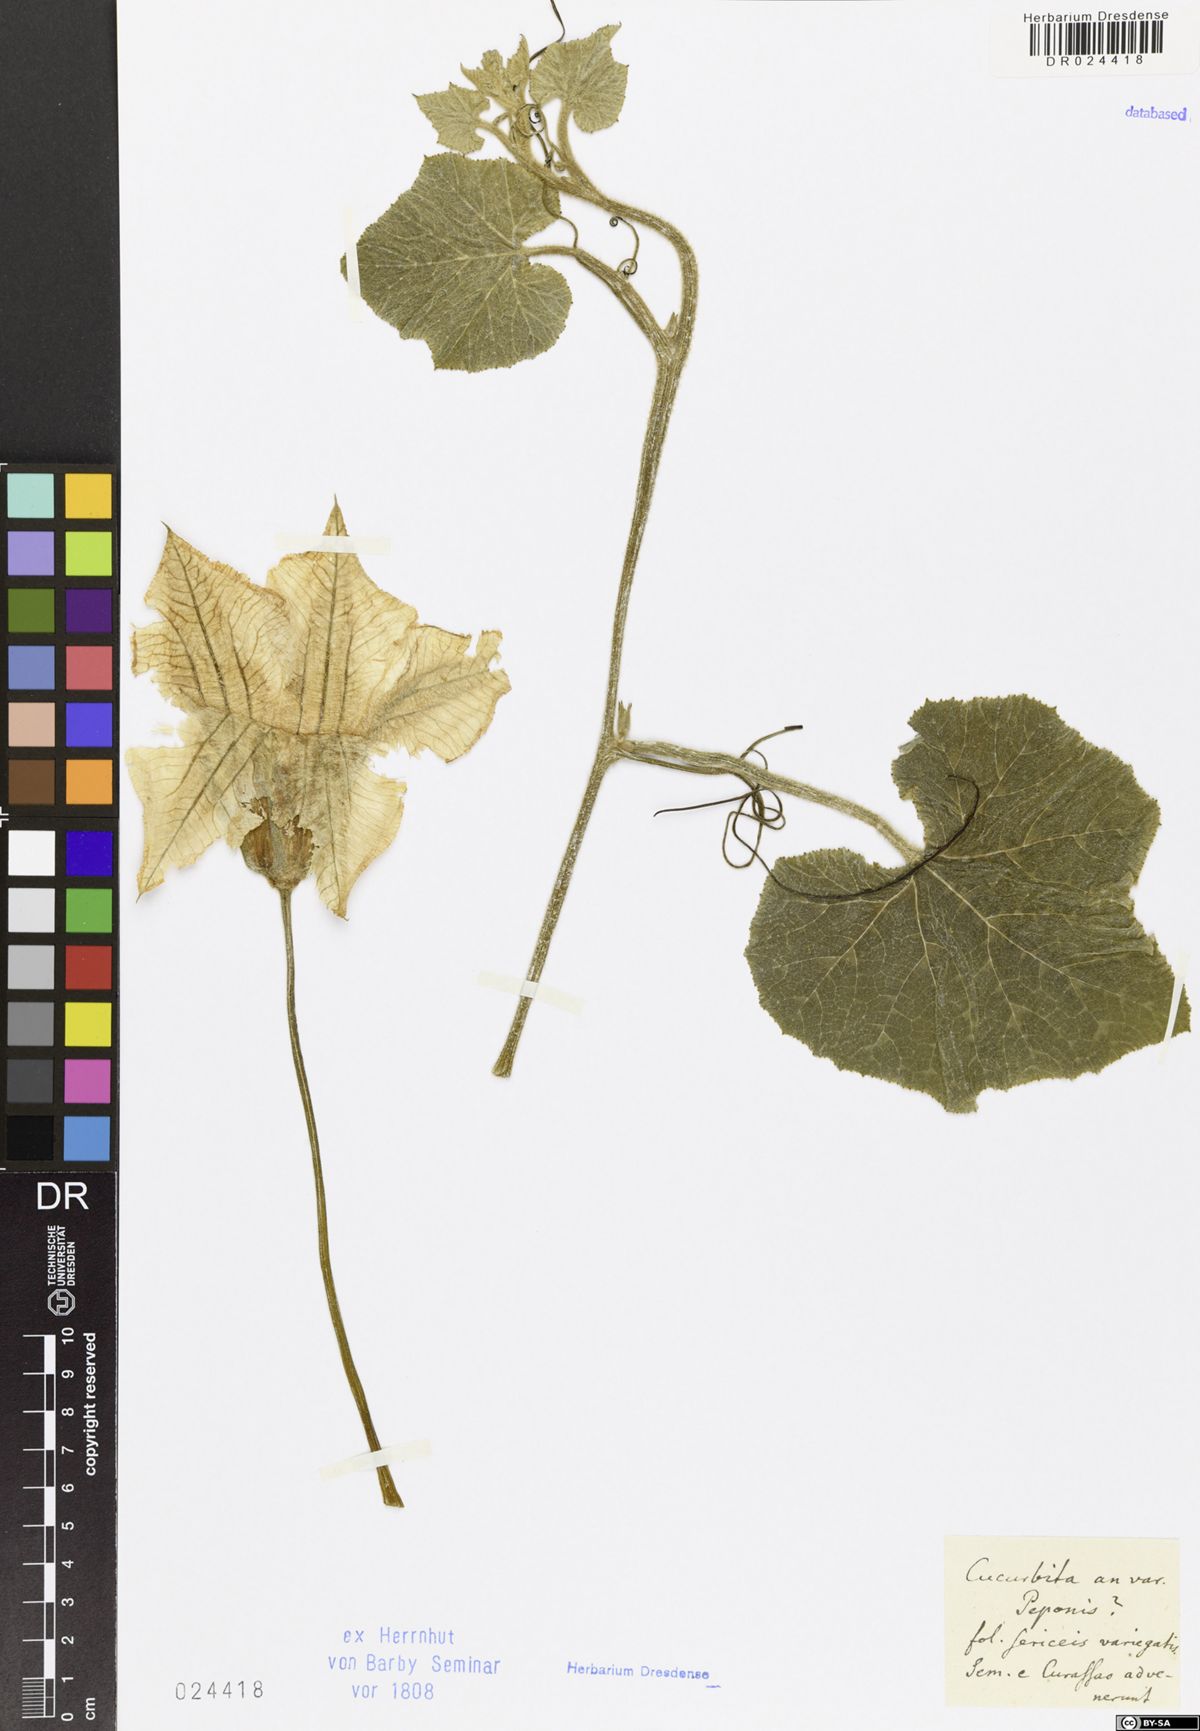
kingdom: Plantae
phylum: Tracheophyta
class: Magnoliopsida
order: Cucurbitales
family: Cucurbitaceae
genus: Cucurbita
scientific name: Cucurbita pepo
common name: Marrow
